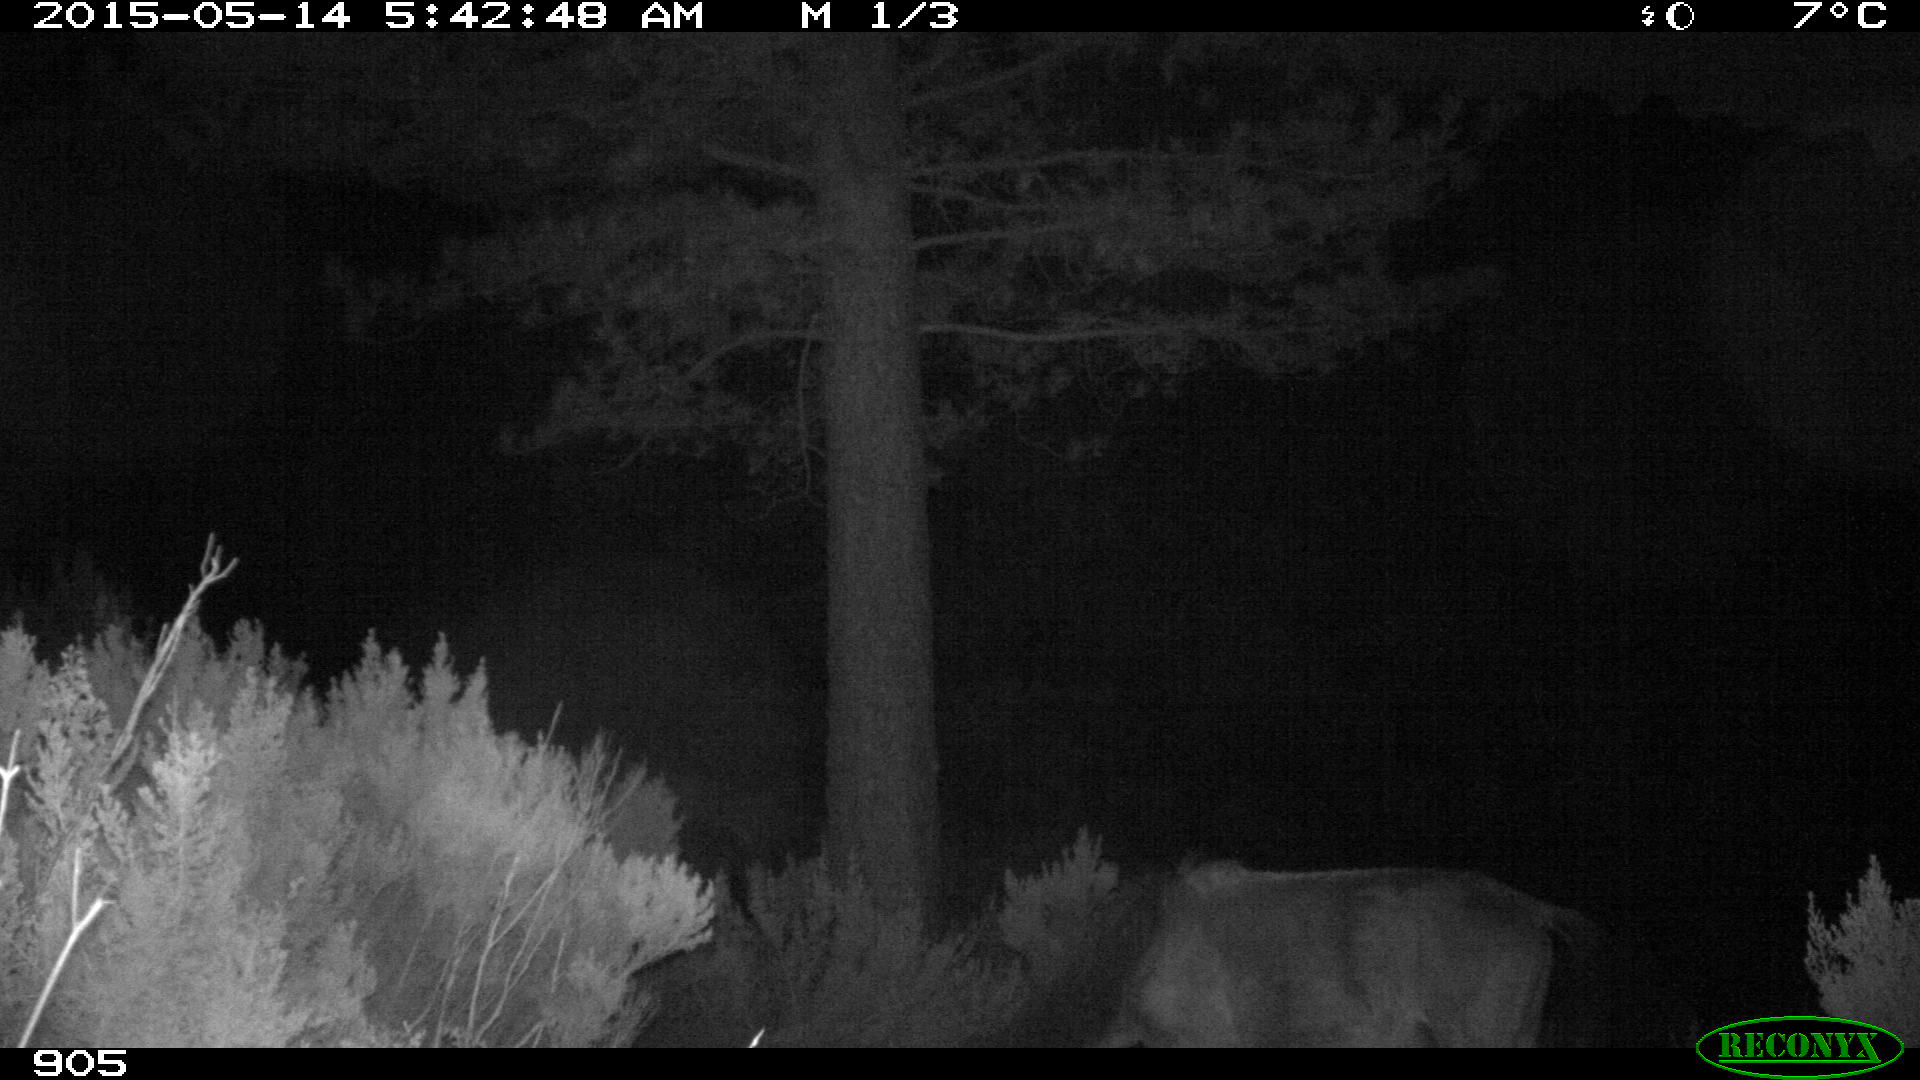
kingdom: Animalia
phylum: Chordata
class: Mammalia
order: Perissodactyla
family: Equidae
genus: Equus
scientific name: Equus caballus
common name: Horse
